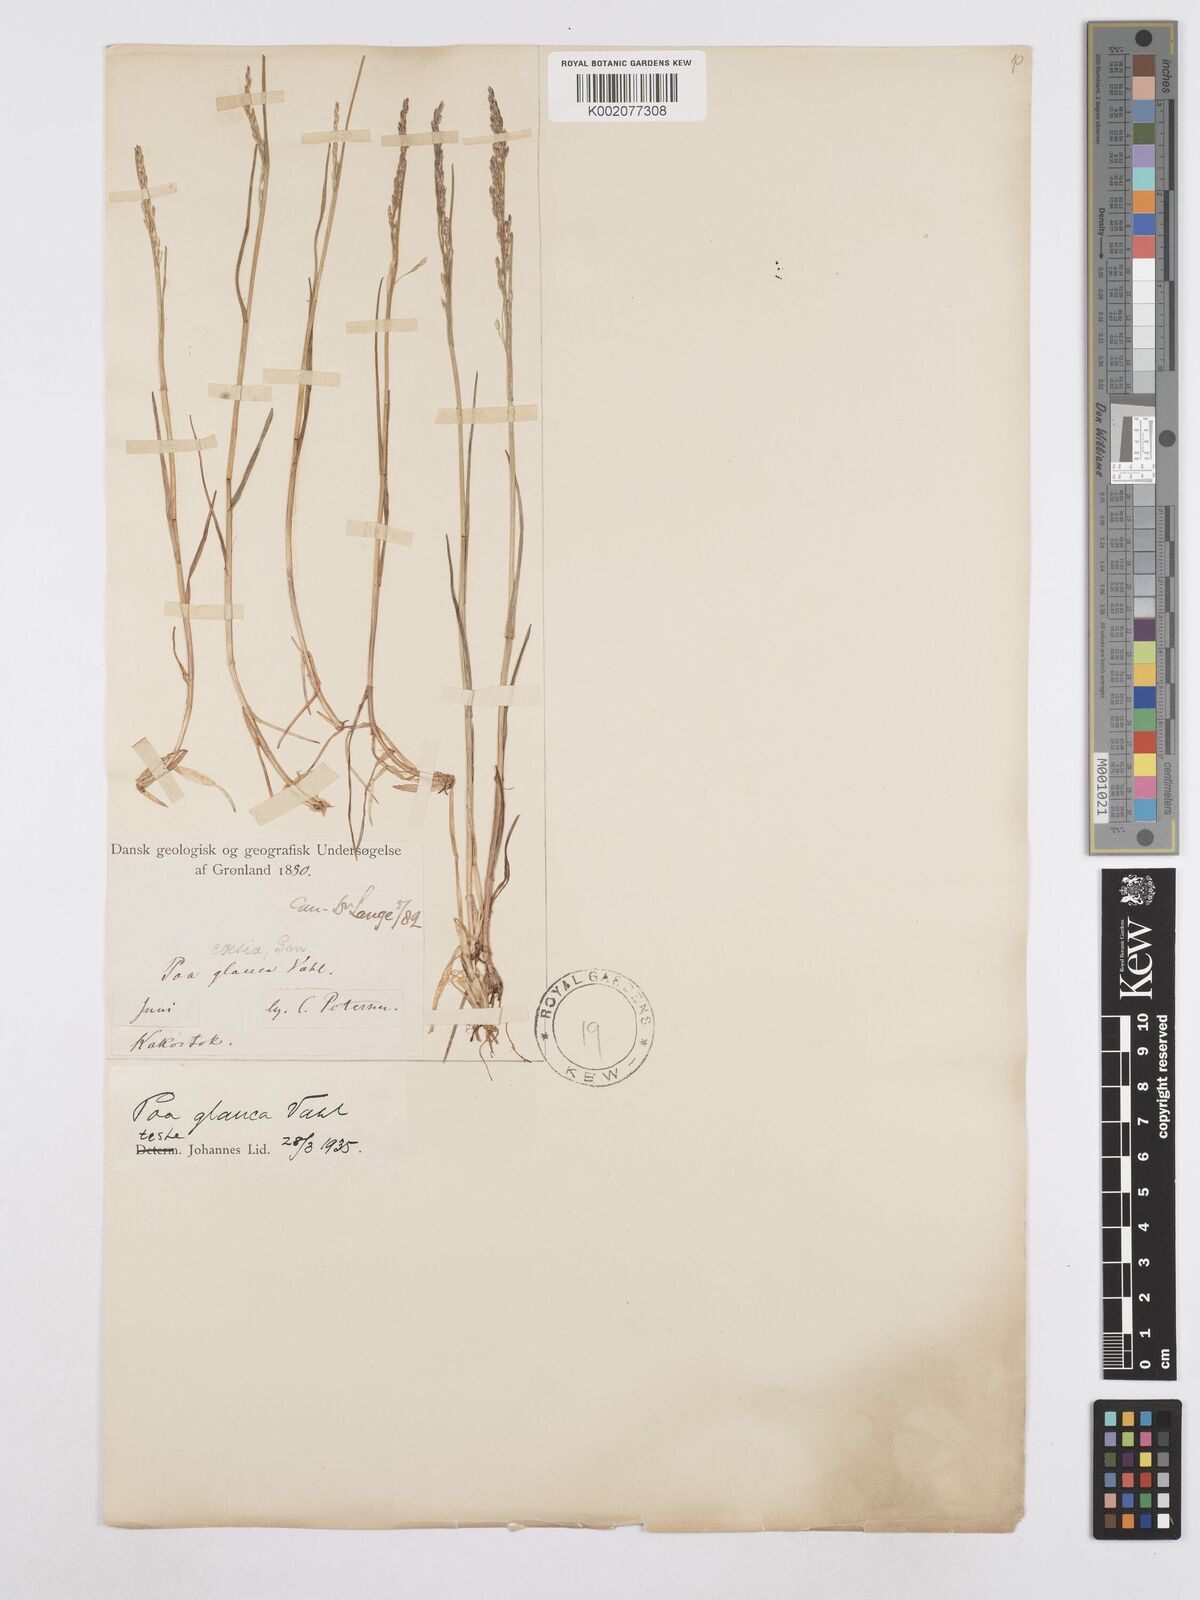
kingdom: Plantae
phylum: Tracheophyta
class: Liliopsida
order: Poales
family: Poaceae
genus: Poa
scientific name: Poa glauca
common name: Glaucous bluegrass
